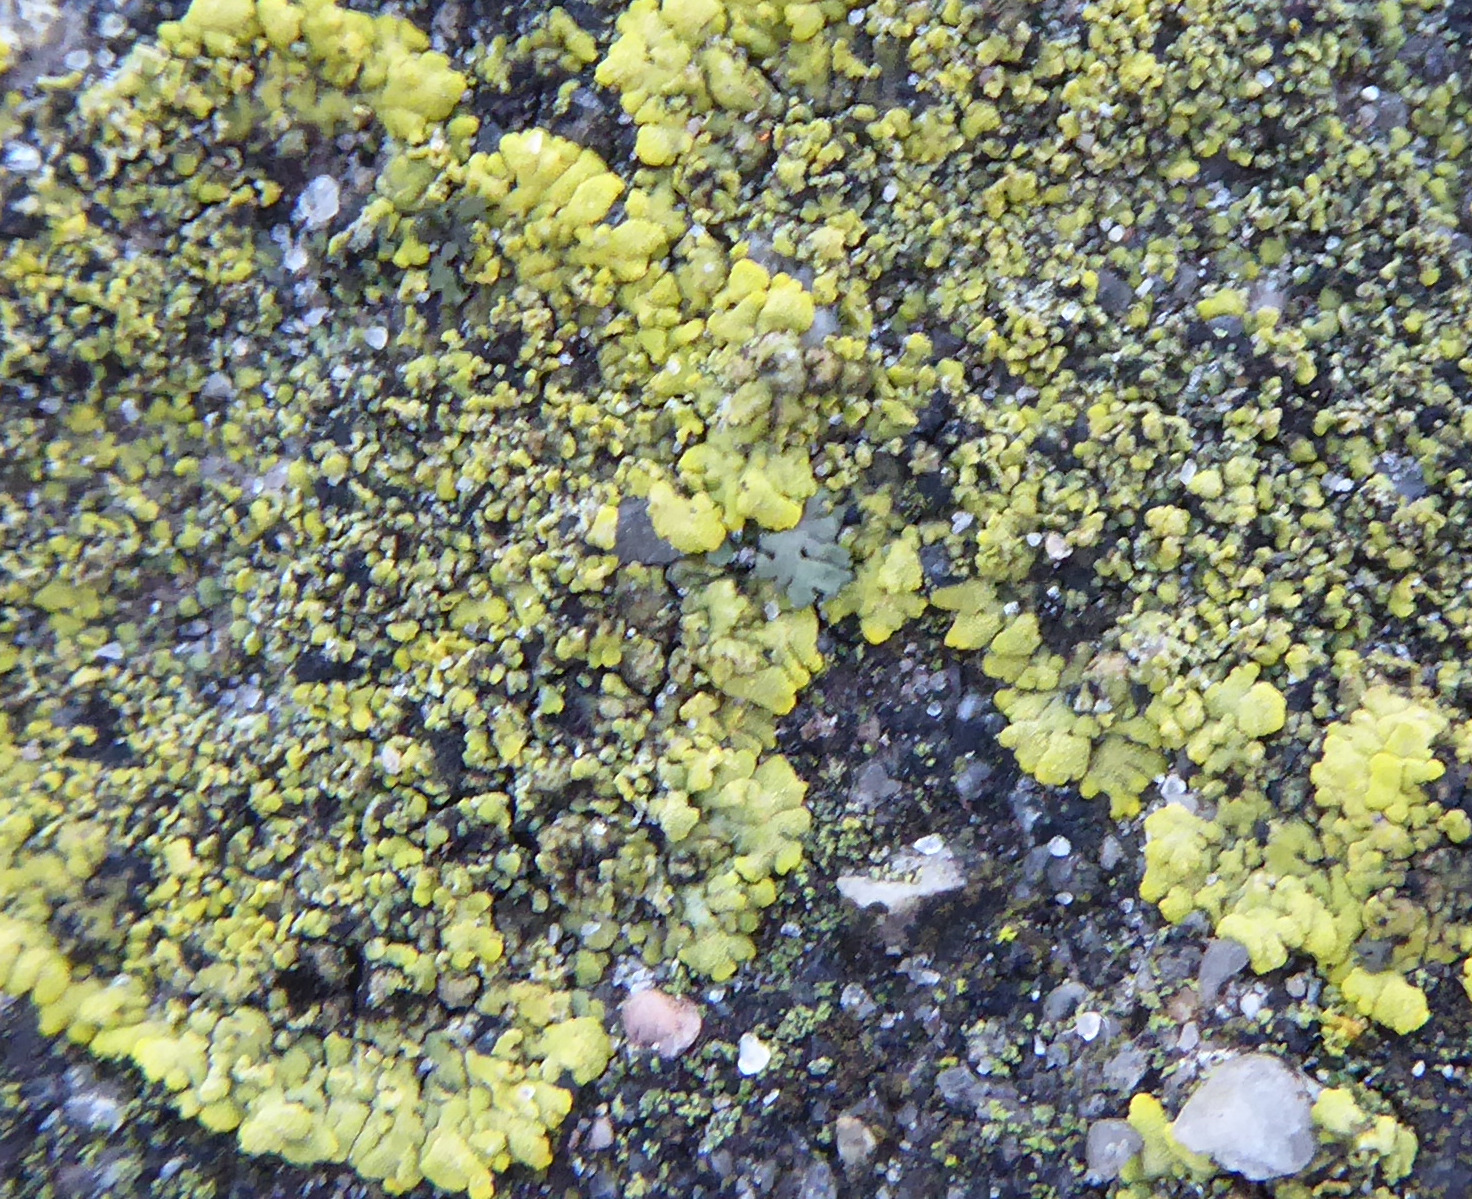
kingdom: Fungi
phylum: Ascomycota
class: Candelariomycetes
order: Candelariales
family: Candelariaceae
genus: Candelariella
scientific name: Candelariella medians
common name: roset-æggeblommelav
